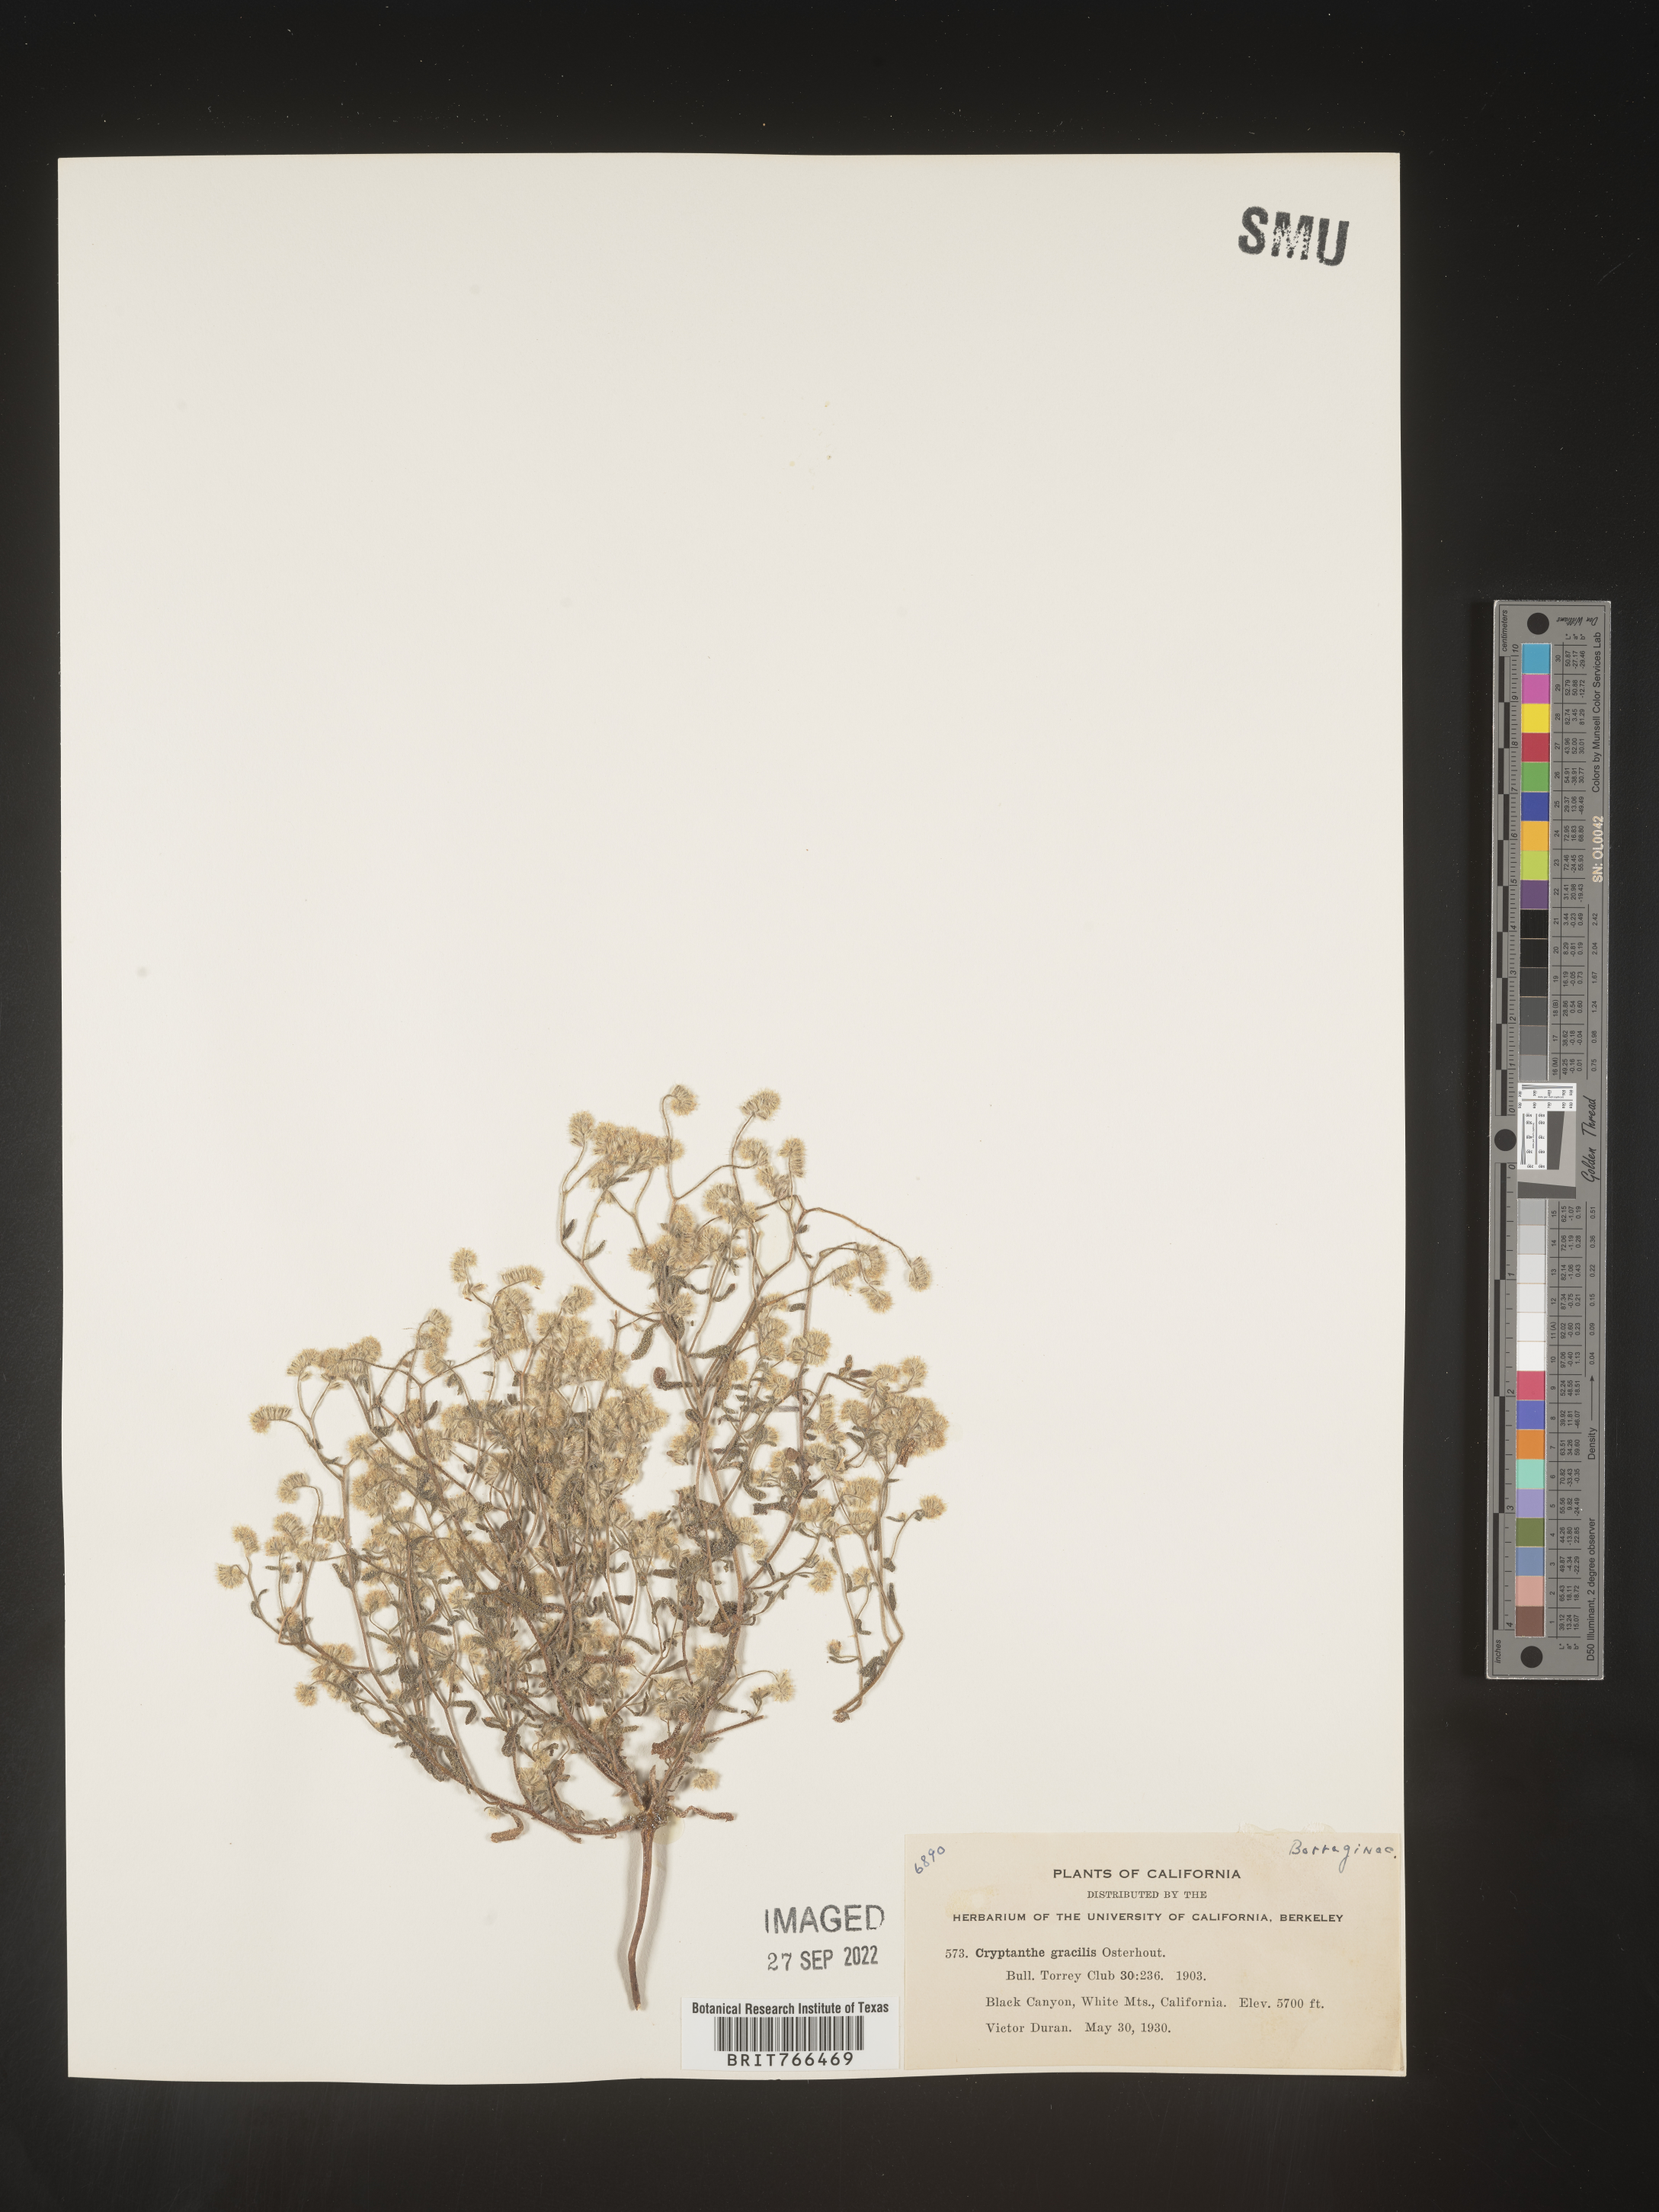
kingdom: Plantae
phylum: Tracheophyta
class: Magnoliopsida
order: Boraginales
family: Boraginaceae
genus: Cryptantha
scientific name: Cryptantha
